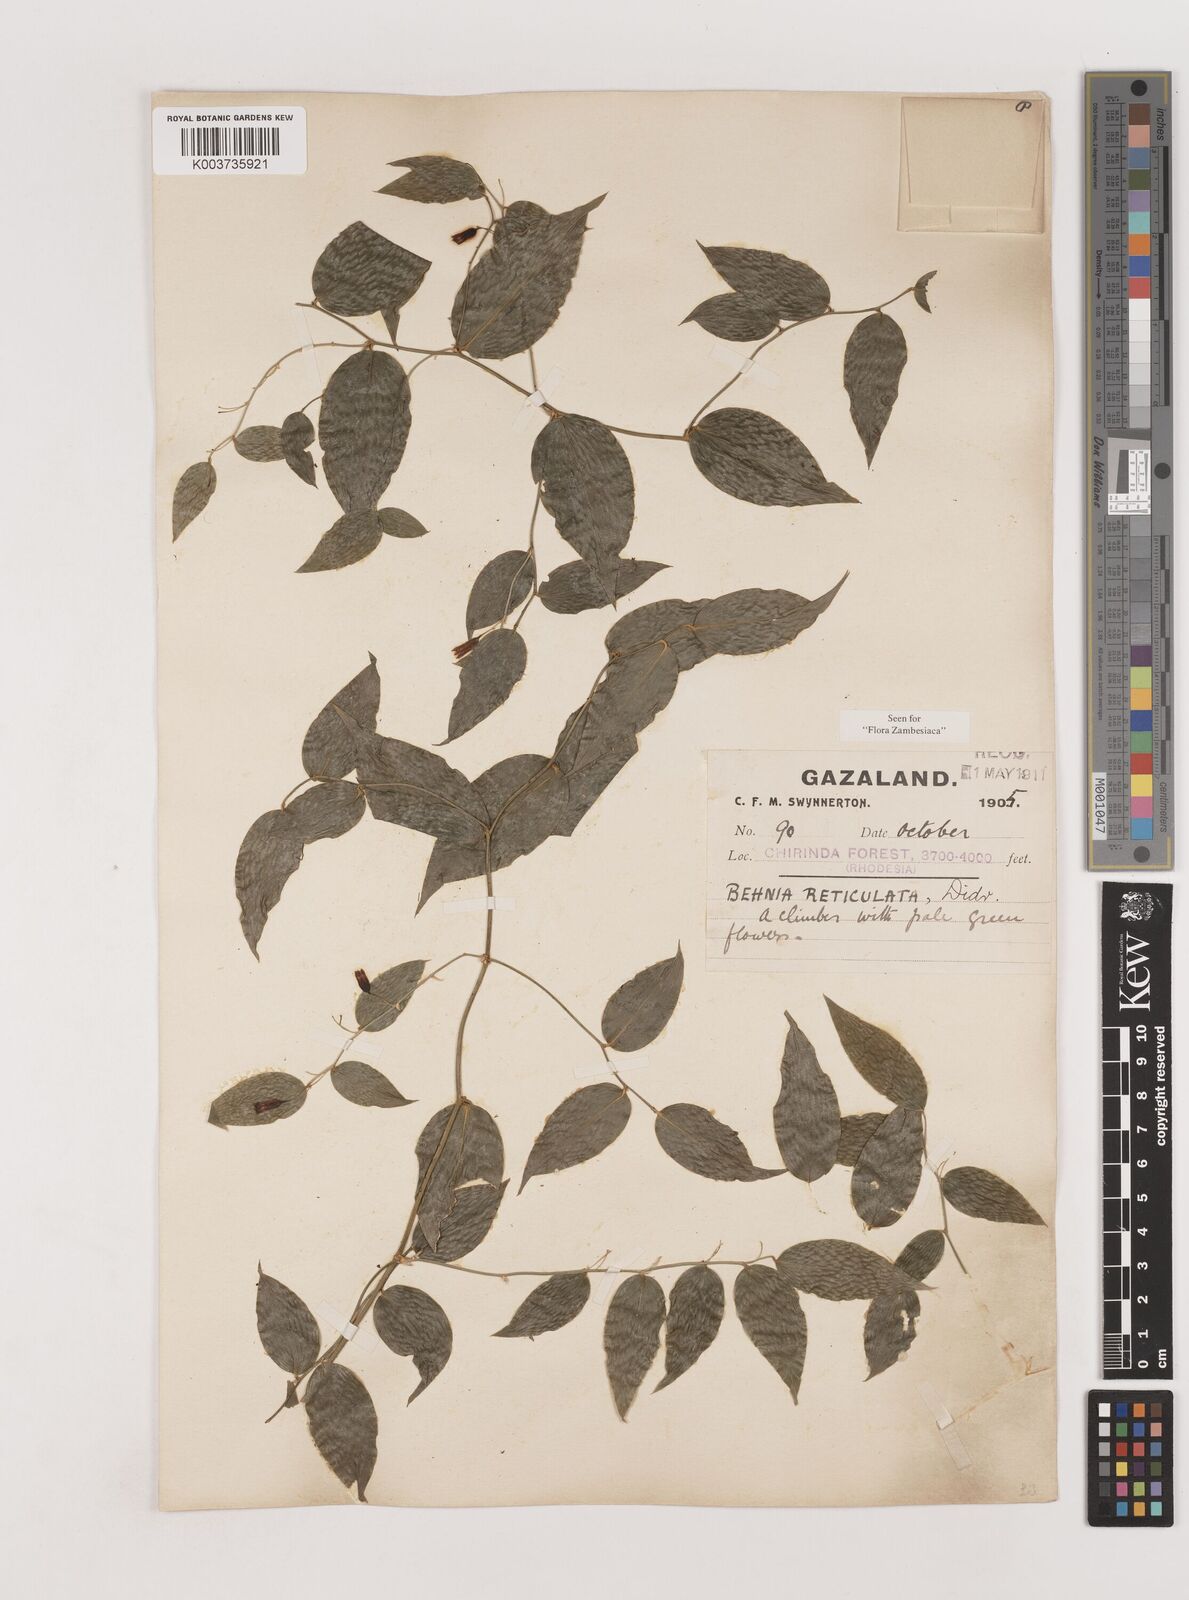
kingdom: Plantae
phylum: Tracheophyta
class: Liliopsida
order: Asparagales
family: Asparagaceae
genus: Behnia
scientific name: Behnia reticulata
